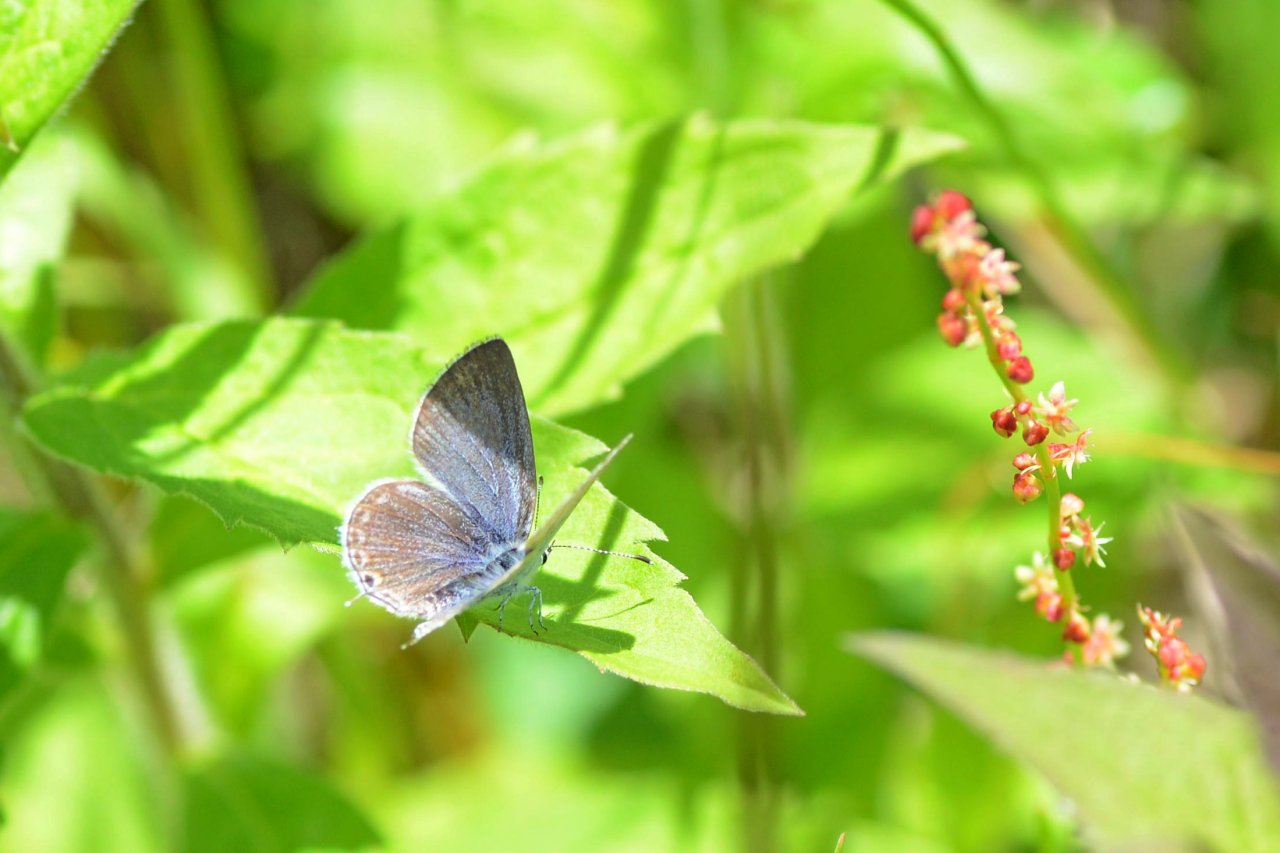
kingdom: Animalia
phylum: Arthropoda
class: Insecta
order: Lepidoptera
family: Lycaenidae
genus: Elkalyce
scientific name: Elkalyce amyntula
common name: Western Tailed-Blue
